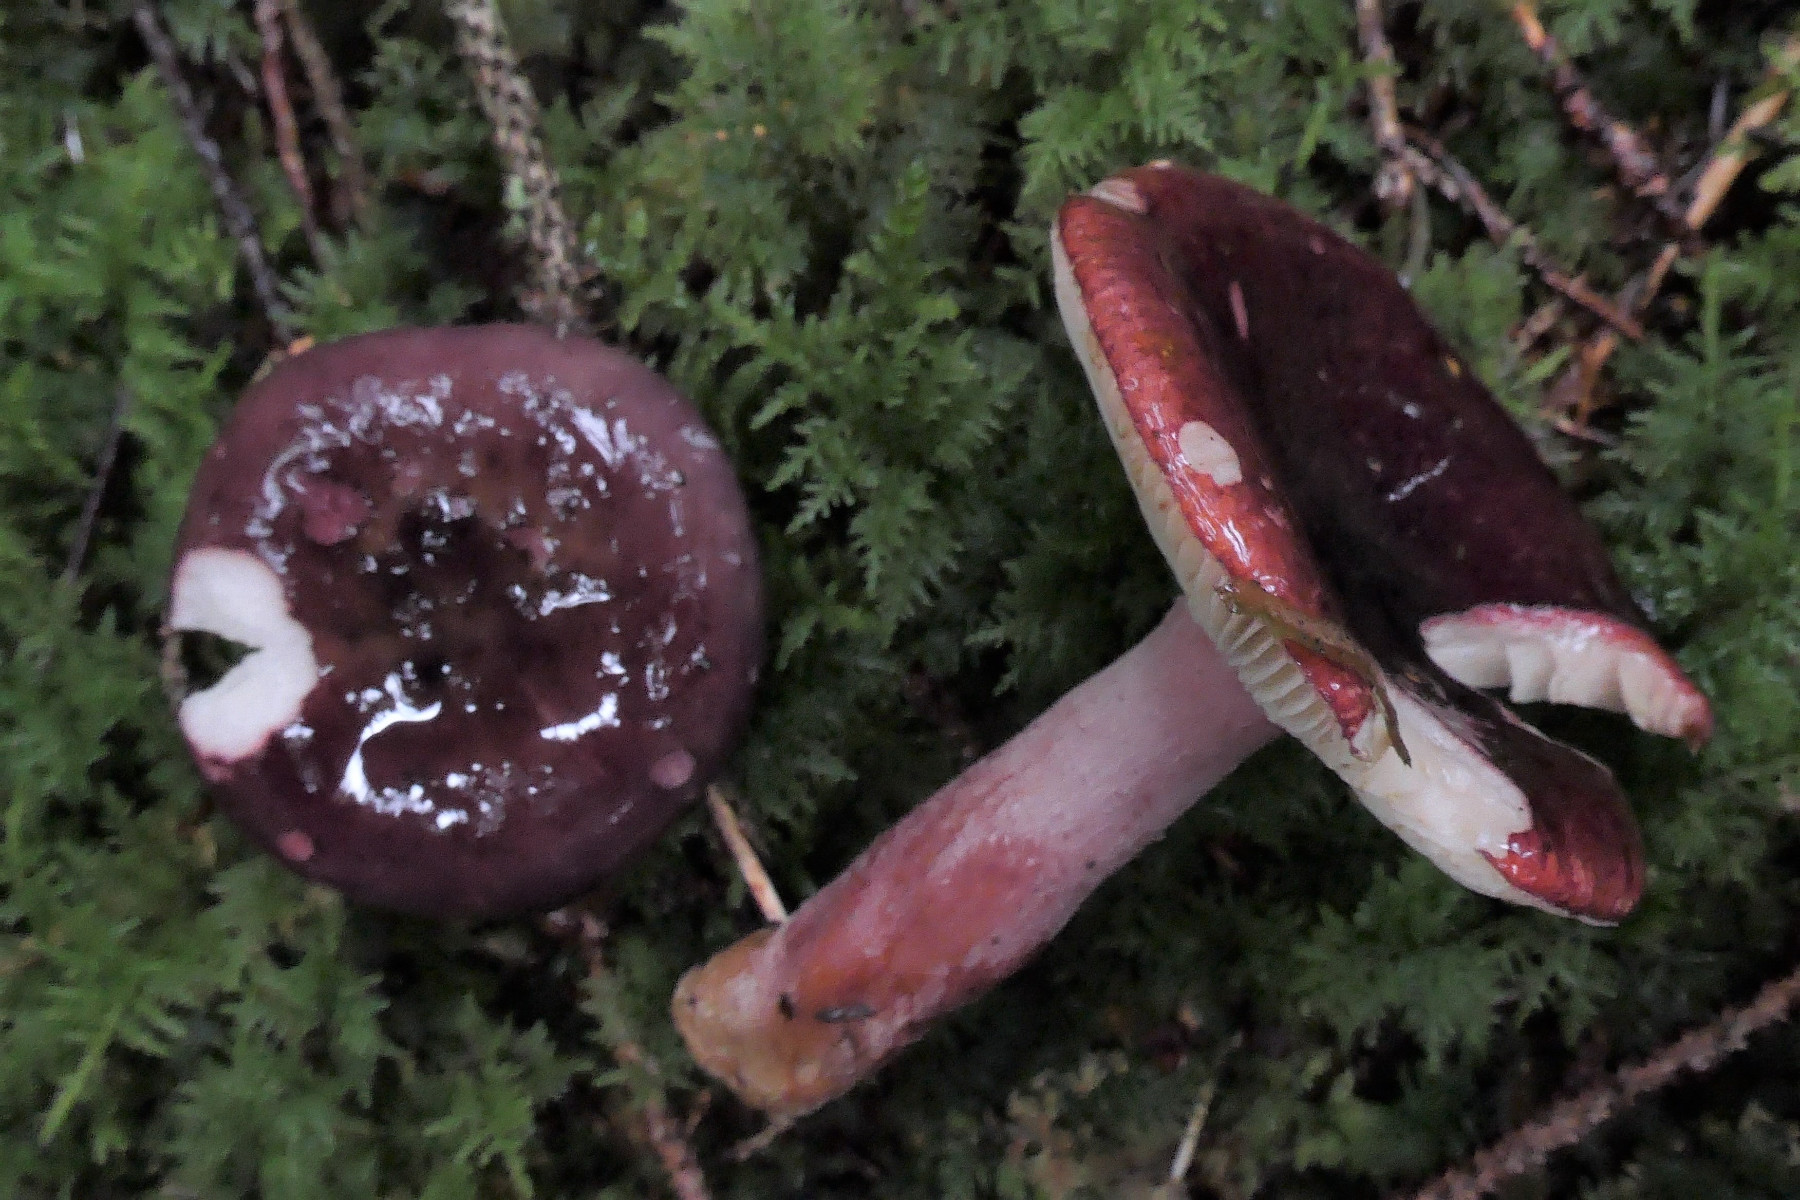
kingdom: Fungi
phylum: Basidiomycota
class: Agaricomycetes
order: Russulales
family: Russulaceae
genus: Russula
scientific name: Russula queletii
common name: Quélets skørhat
